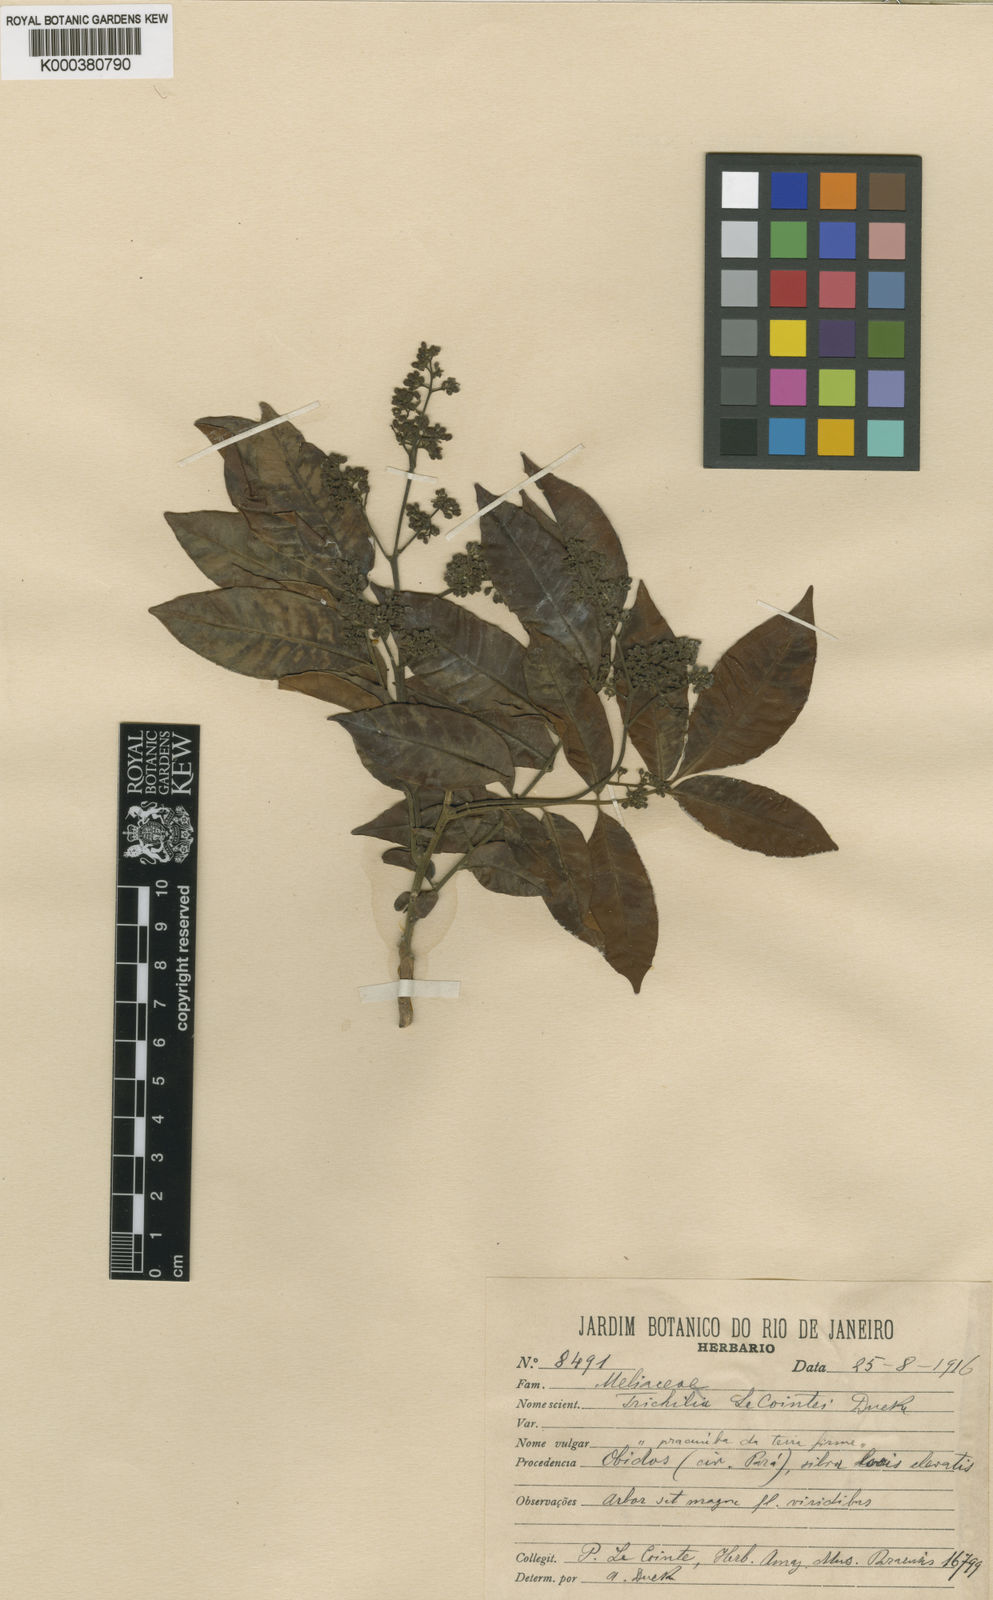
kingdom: Plantae
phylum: Tracheophyta
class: Magnoliopsida
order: Sapindales
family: Meliaceae
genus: Trichilia
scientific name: Trichilia lecointei
